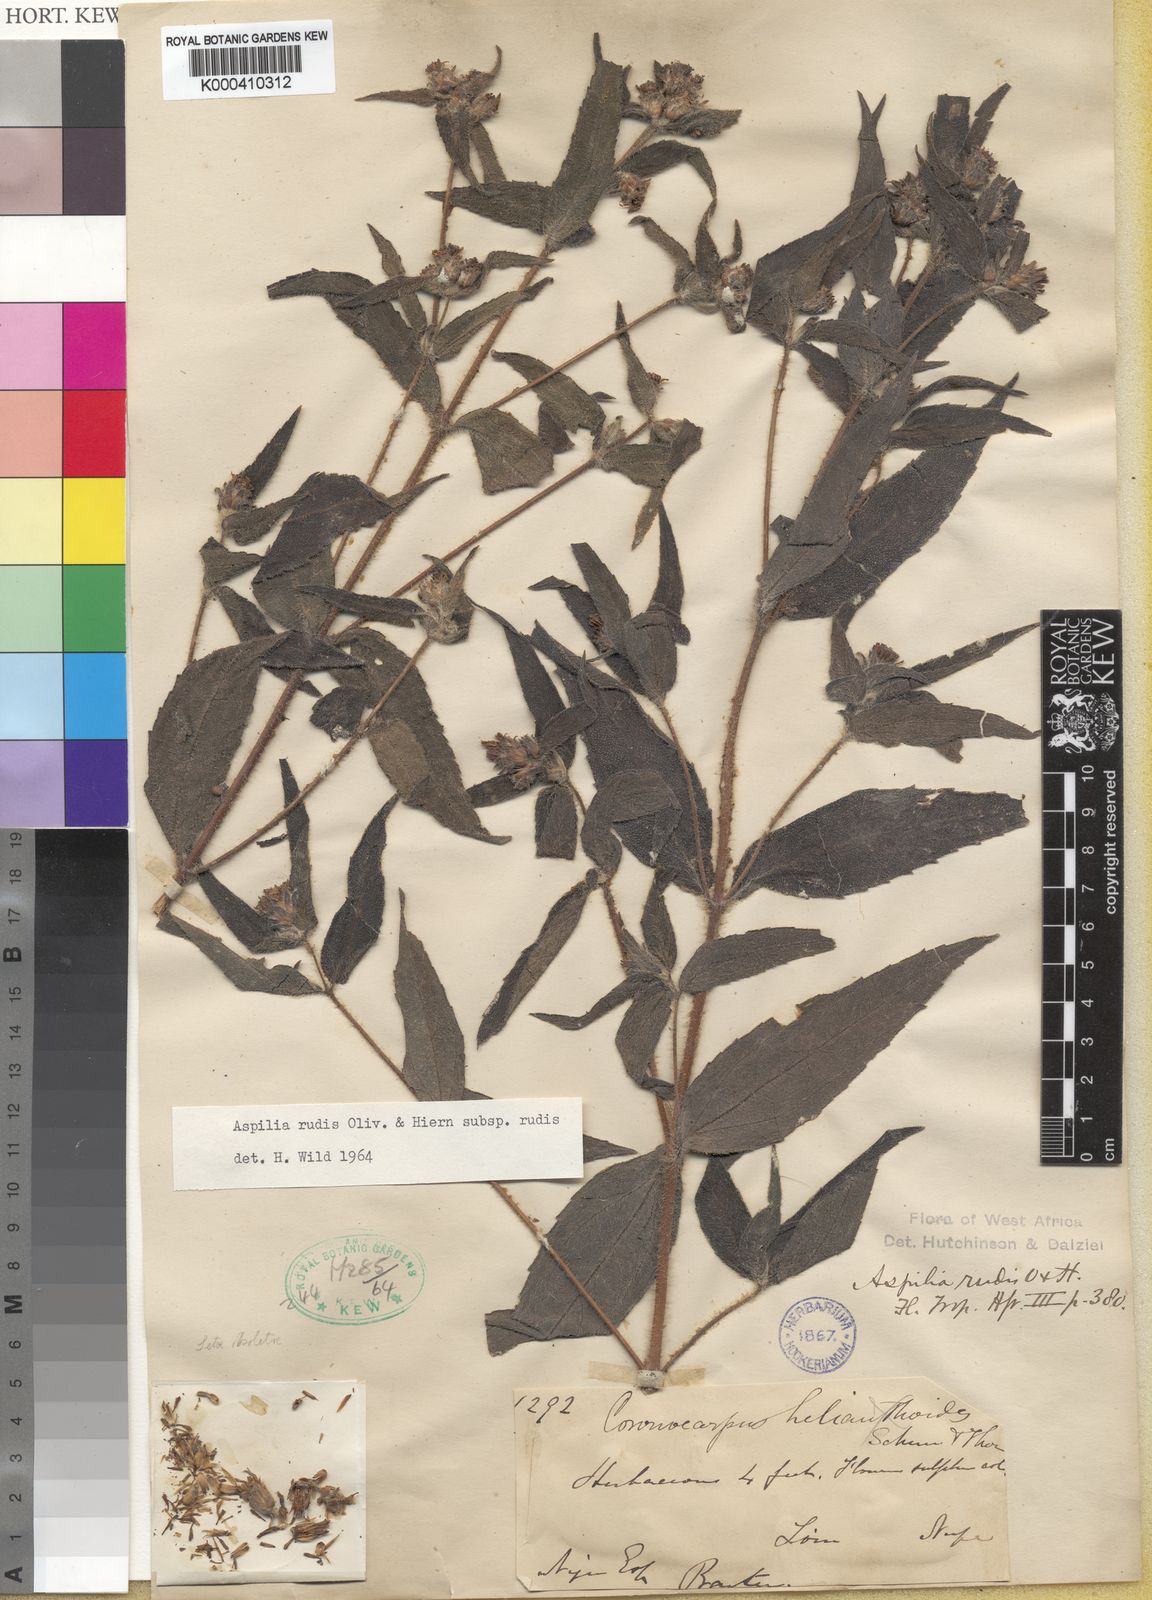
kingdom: Plantae
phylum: Tracheophyta
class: Magnoliopsida
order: Asterales
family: Asteraceae
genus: Aspilia
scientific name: Aspilia rudis
